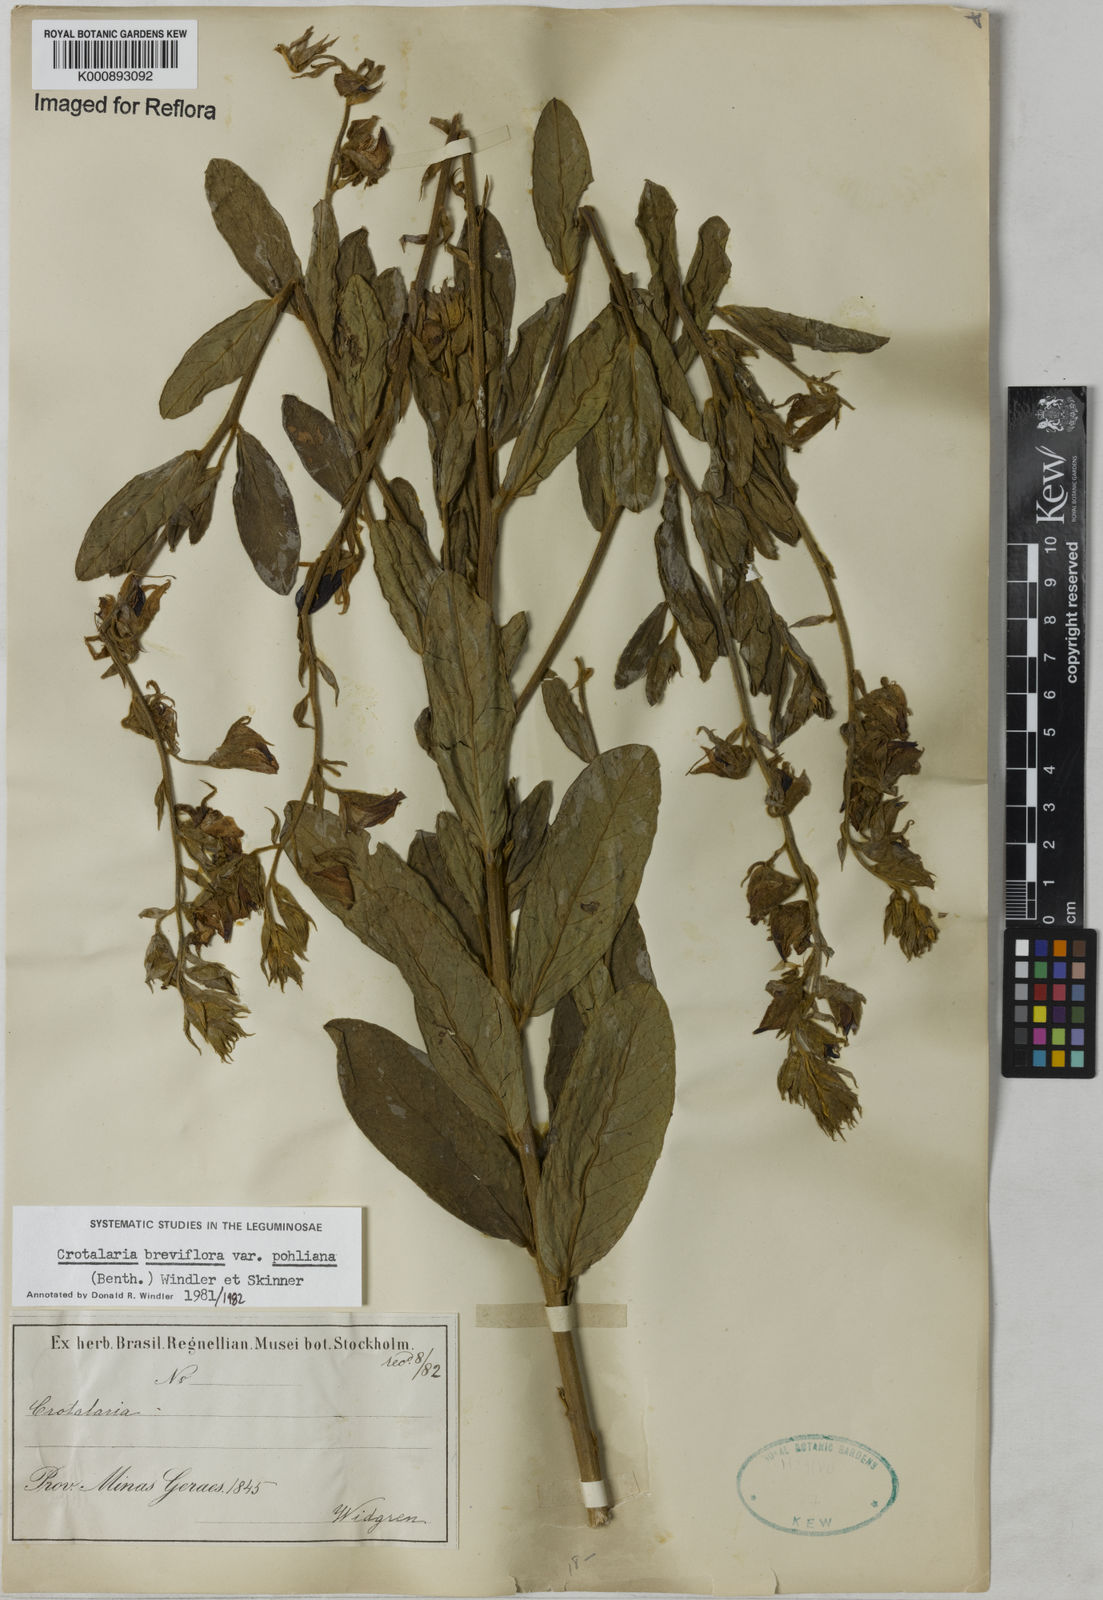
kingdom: Plantae
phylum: Tracheophyta
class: Magnoliopsida
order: Fabales
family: Fabaceae
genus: Crotalaria
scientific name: Crotalaria subdecurrens
